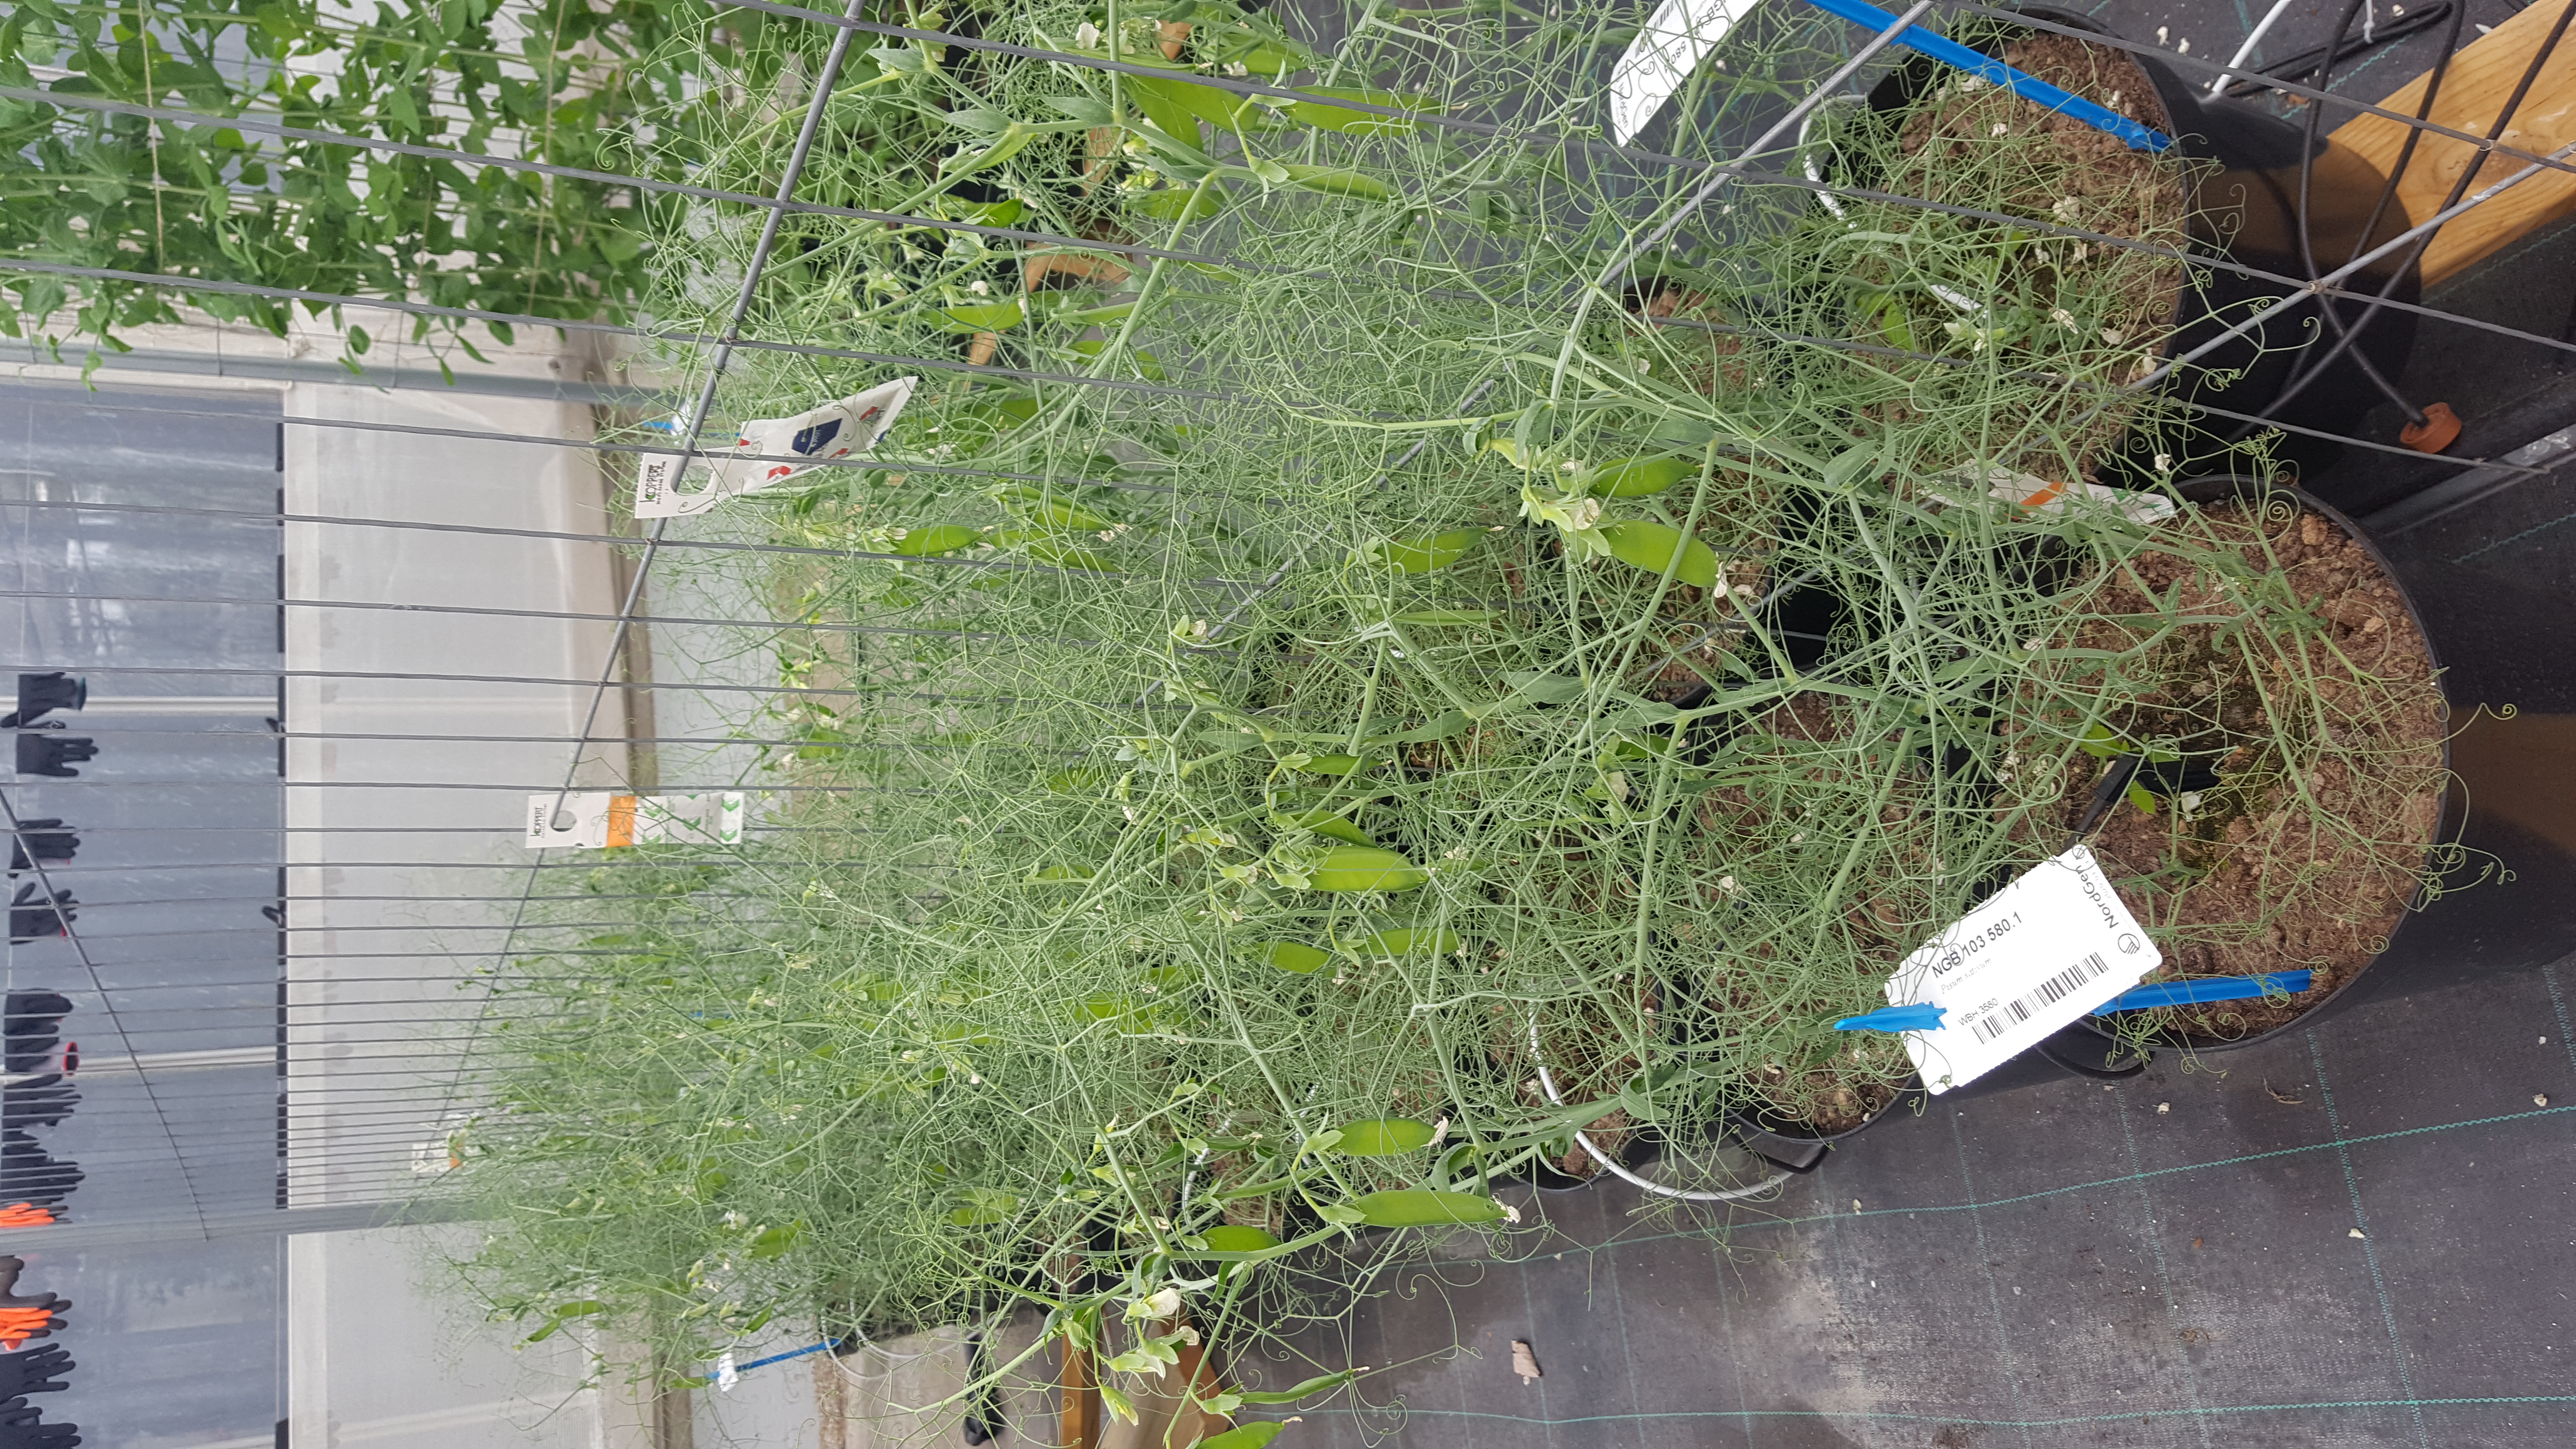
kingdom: Plantae
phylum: Tracheophyta
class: Magnoliopsida
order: Fabales
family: Fabaceae
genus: Lathyrus
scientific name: Lathyrus oleraceus
